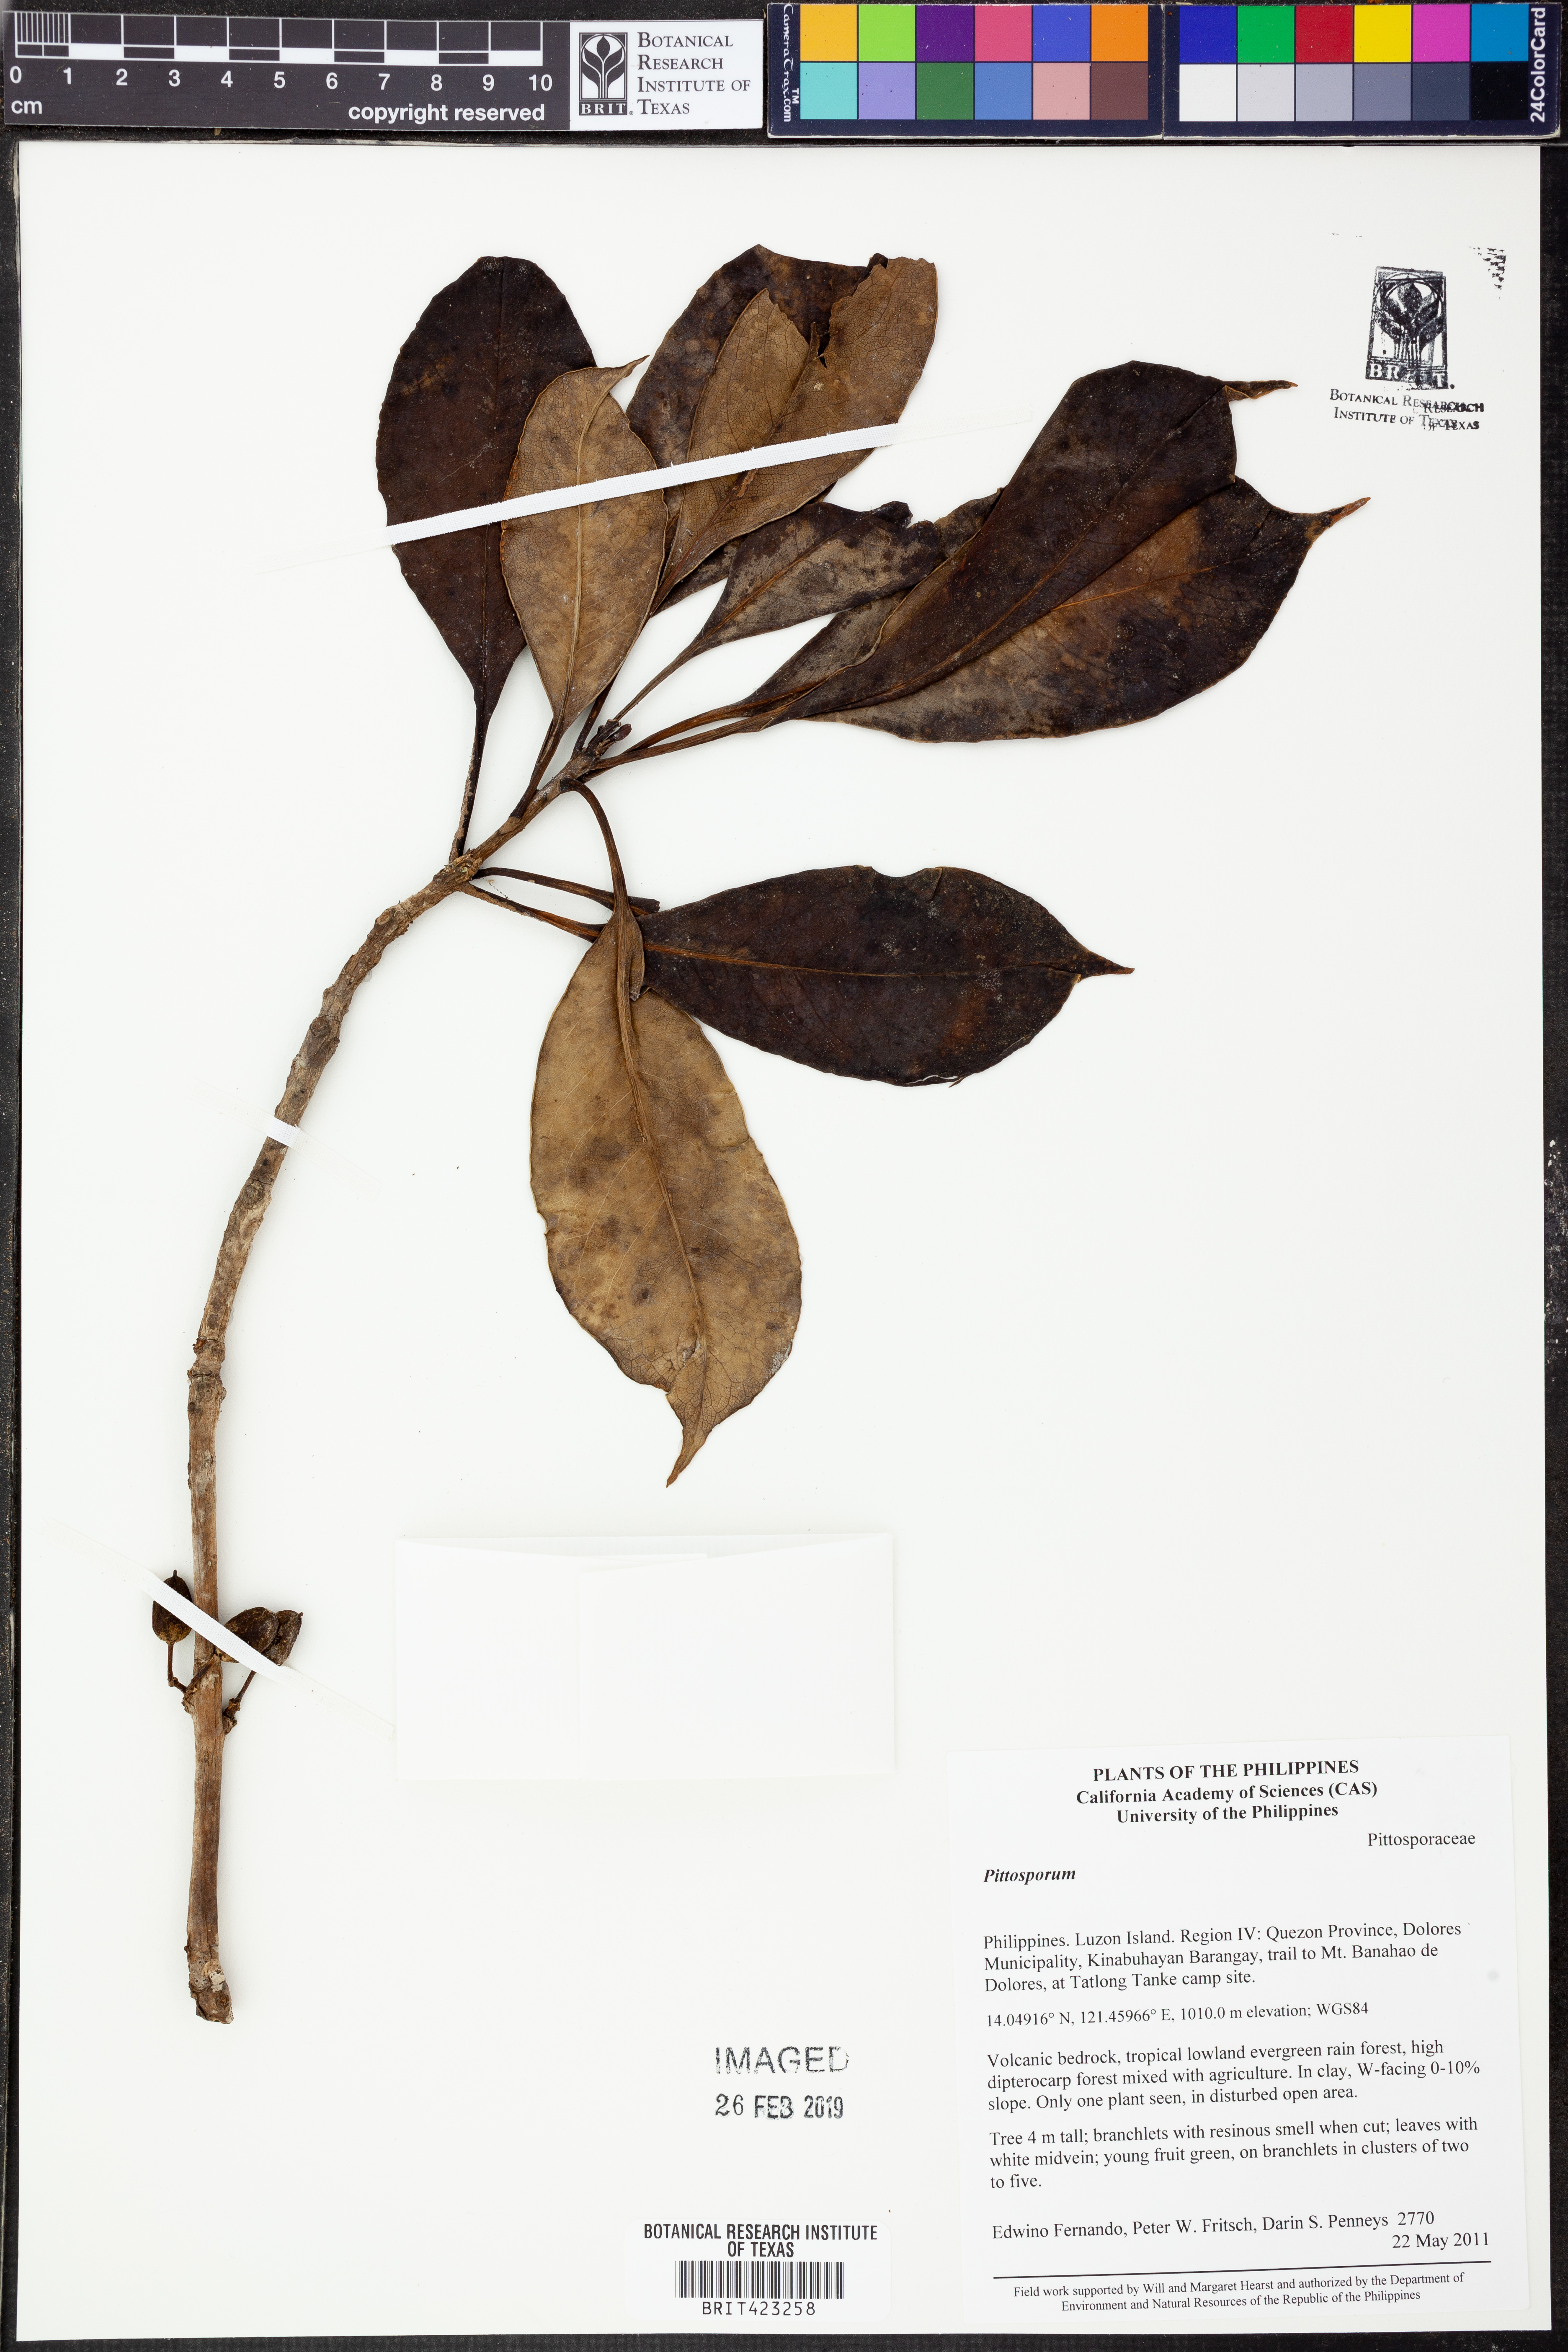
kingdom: Plantae
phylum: Tracheophyta
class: Magnoliopsida
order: Apiales
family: Pittosporaceae
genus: Pittosporum
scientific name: Pittosporum
